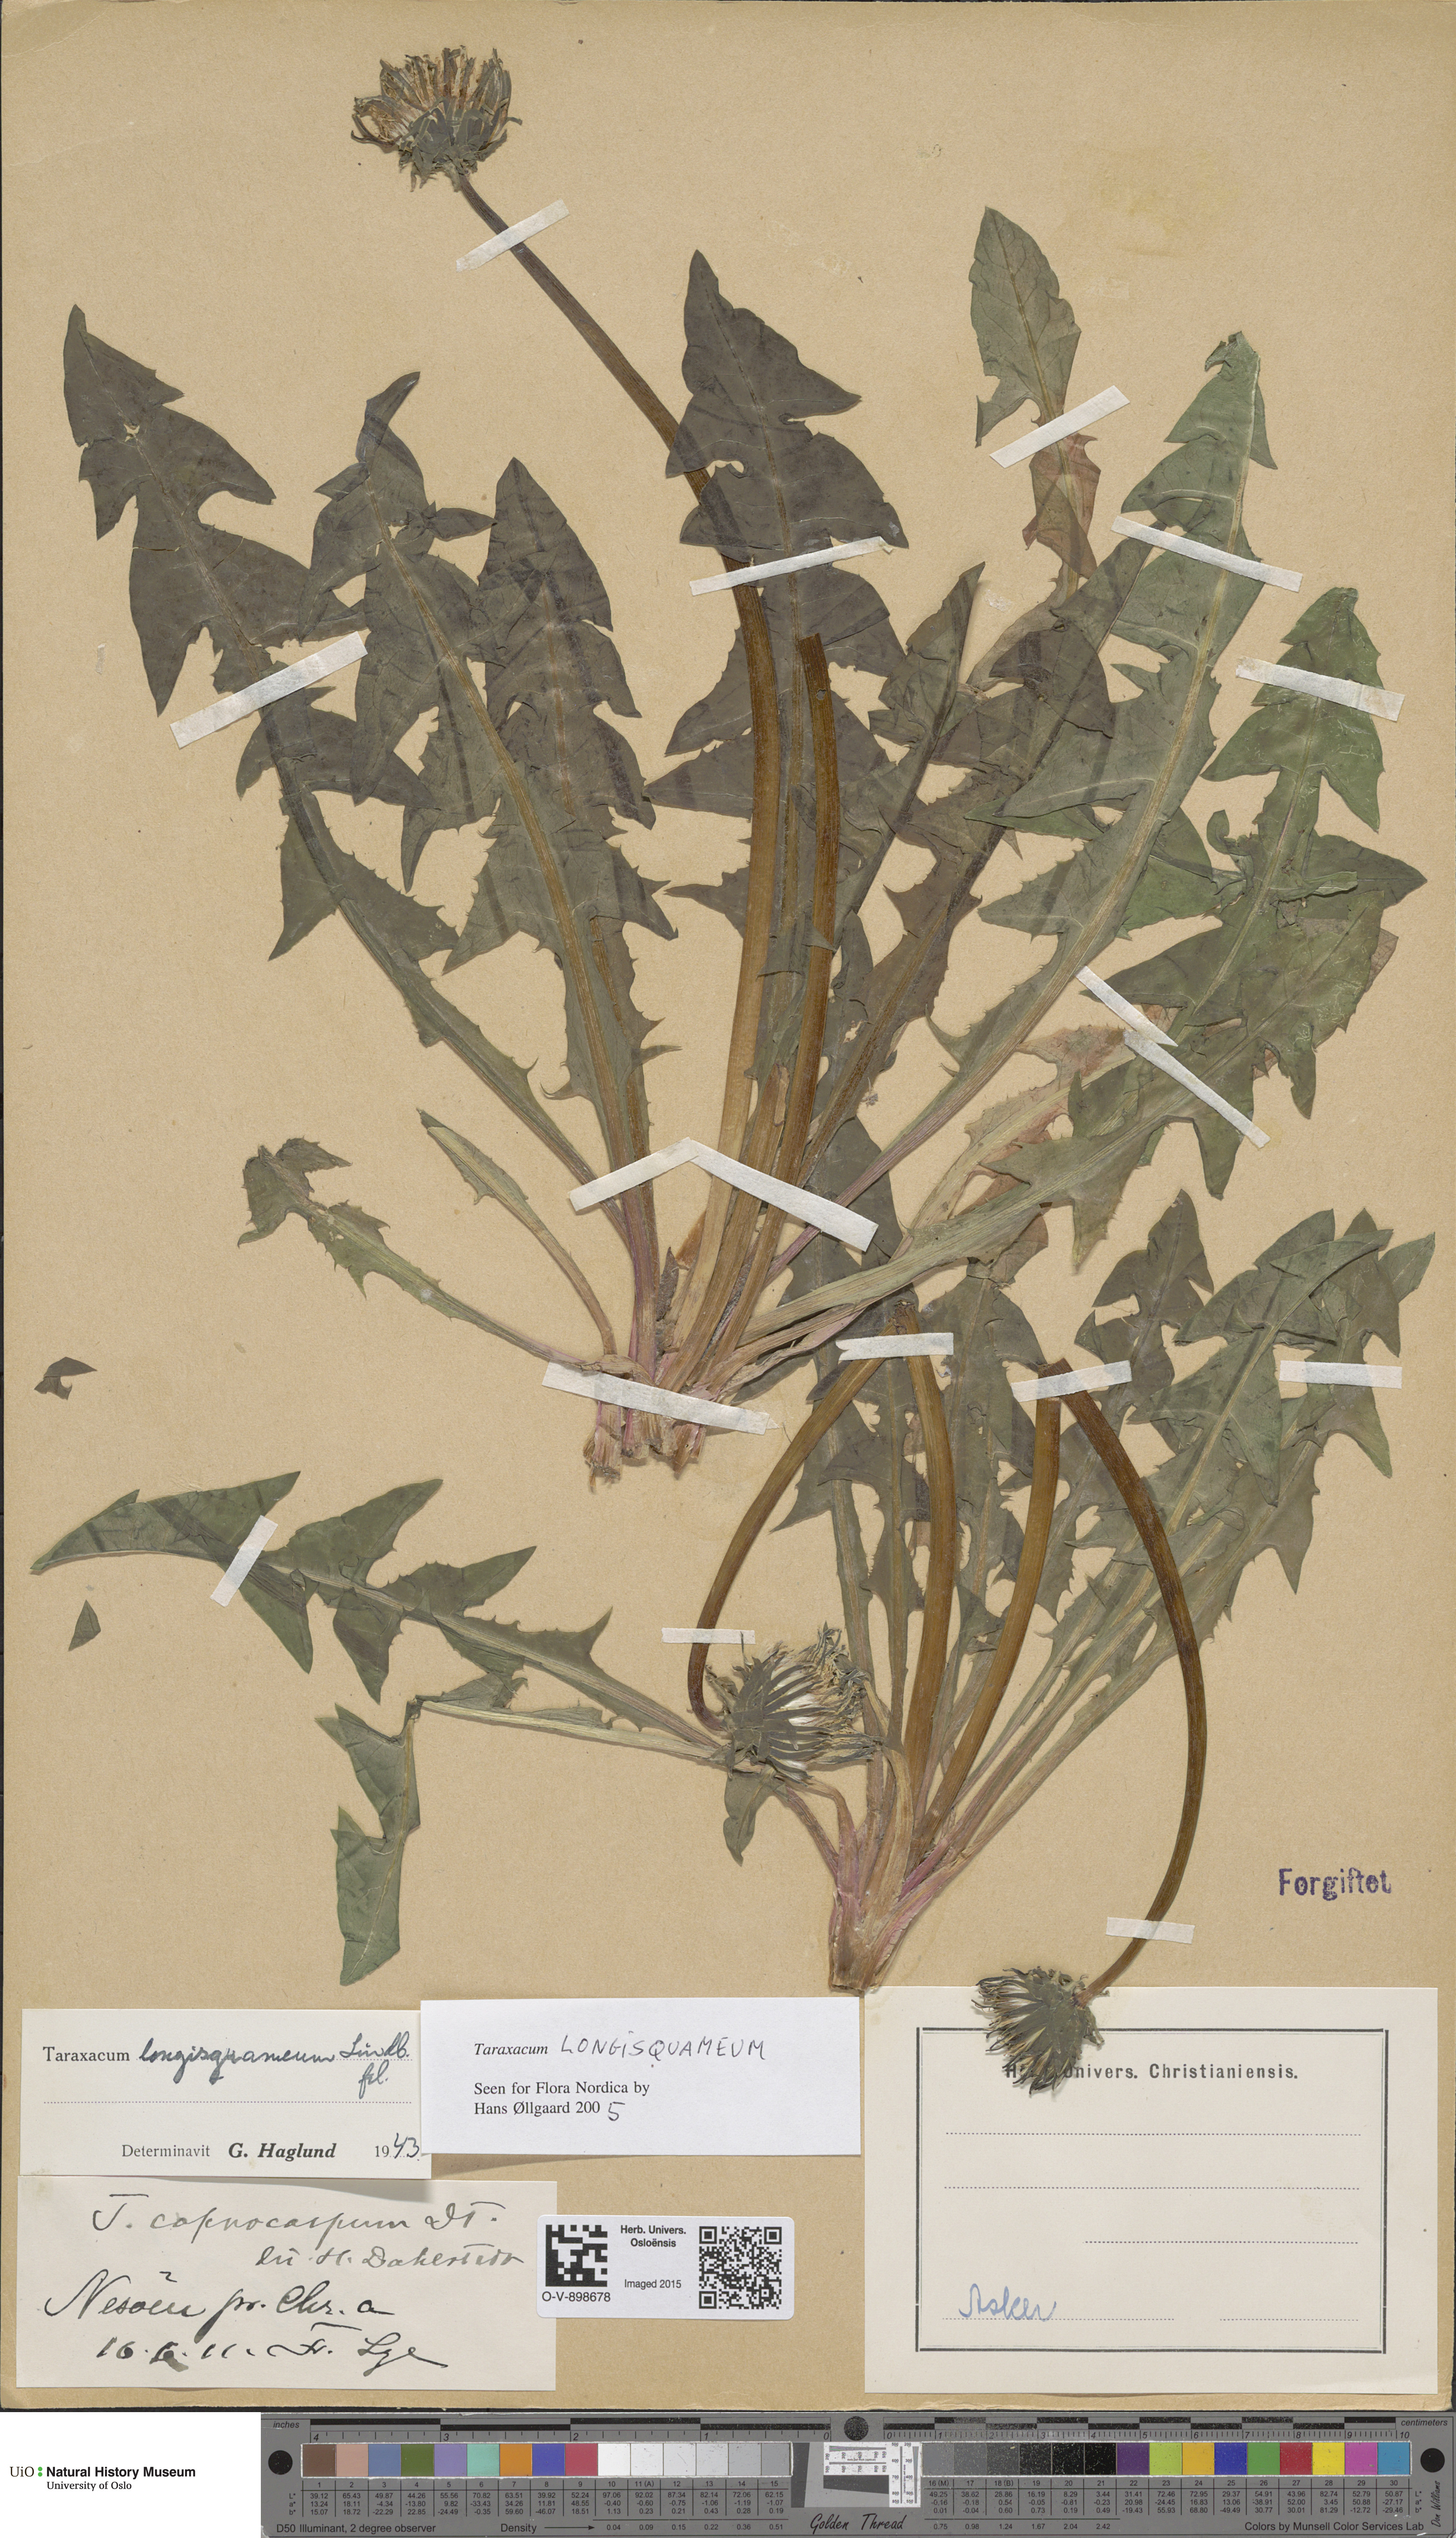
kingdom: Plantae
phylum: Tracheophyta
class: Magnoliopsida
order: Asterales
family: Asteraceae
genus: Taraxacum
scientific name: Taraxacum longisquameum
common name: Elongate-bracted dandelion
